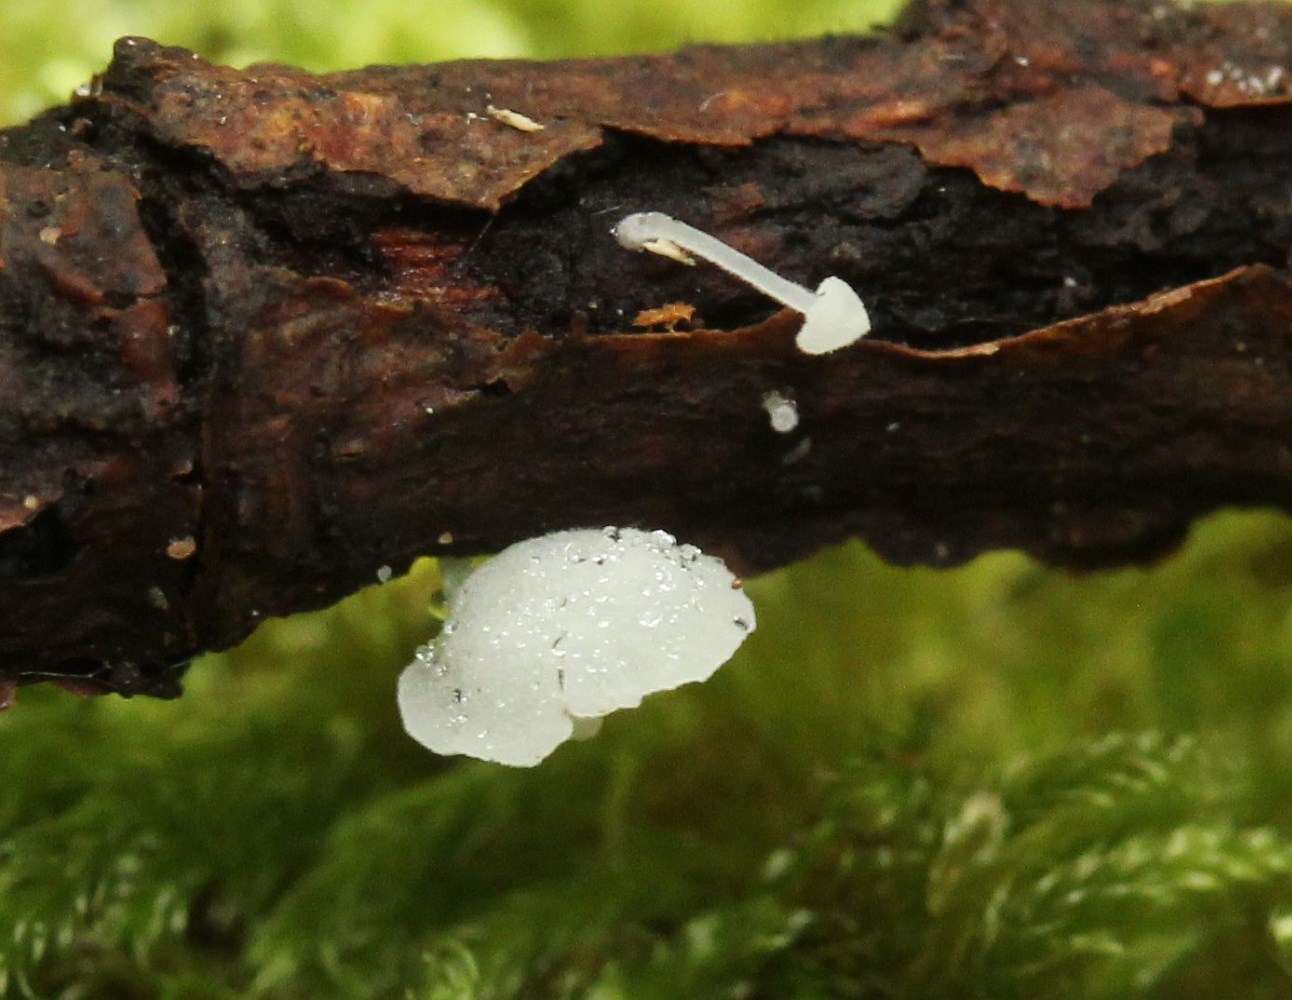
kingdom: Fungi
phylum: Basidiomycota
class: Agaricomycetes
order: Agaricales
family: Mycenaceae
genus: Hemimycena
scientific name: Hemimycena mauretanica
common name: smalsporet huesvamp
